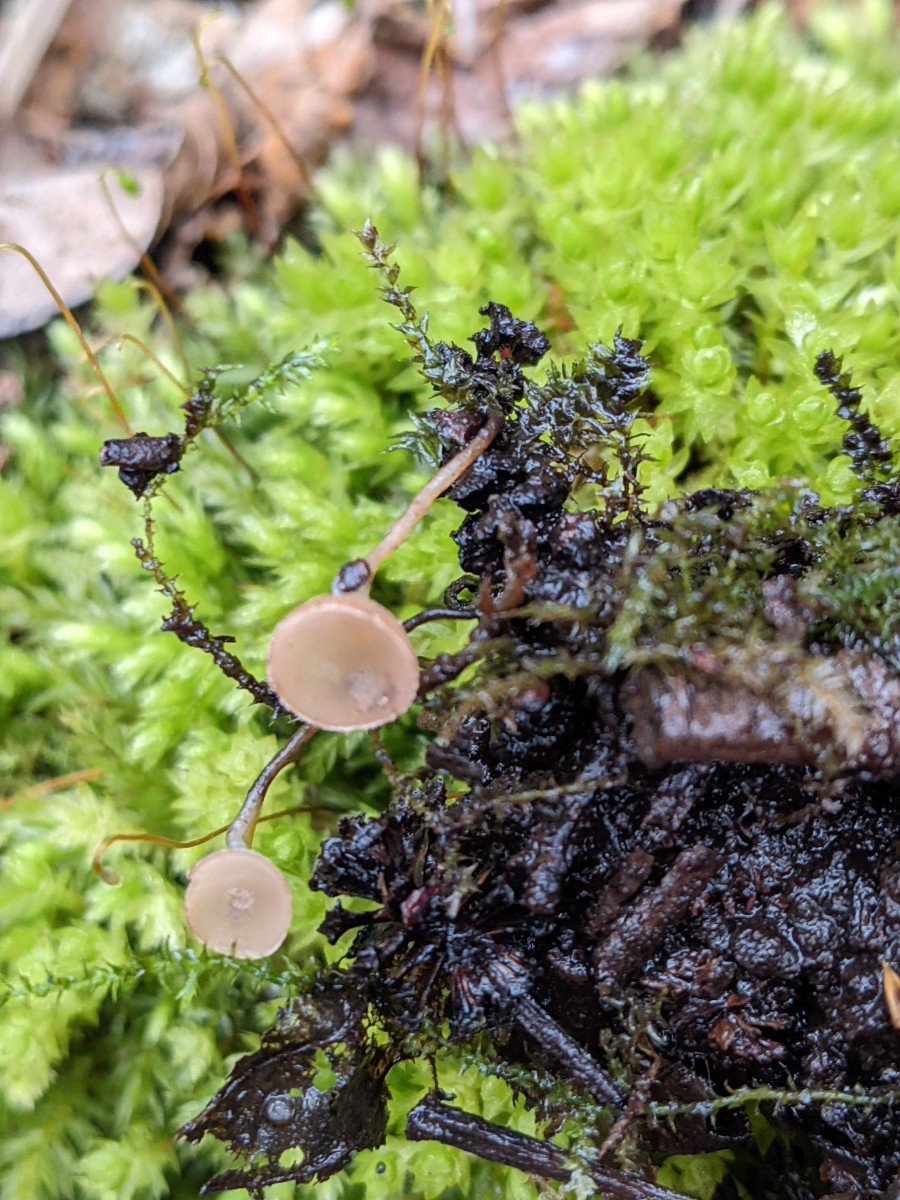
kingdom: Fungi
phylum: Ascomycota
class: Leotiomycetes
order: Helotiales
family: Sclerotiniaceae
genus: Ciboria
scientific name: Ciboria amentacea
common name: ellerakle-knoldskive
